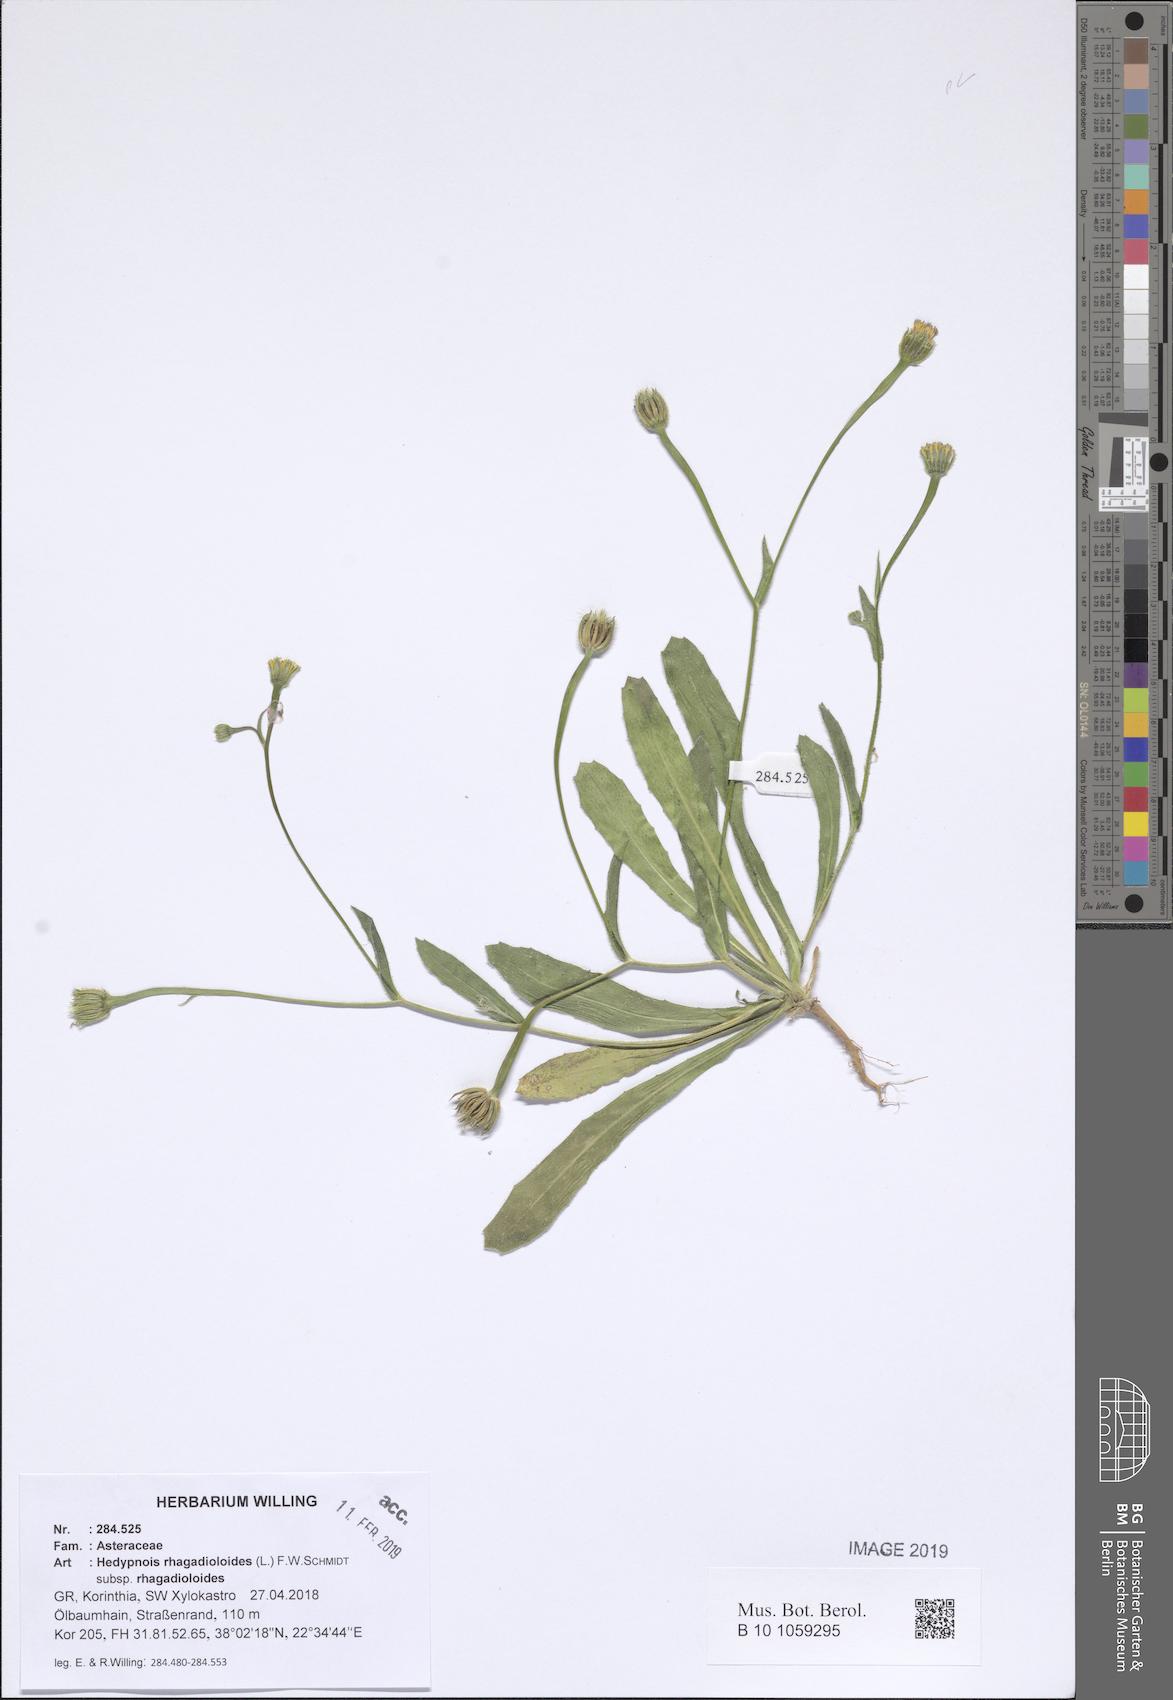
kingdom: Plantae
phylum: Tracheophyta
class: Magnoliopsida
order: Asterales
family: Asteraceae
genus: Hedypnois
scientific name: Hedypnois rhagadioloides
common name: Cretan weed
